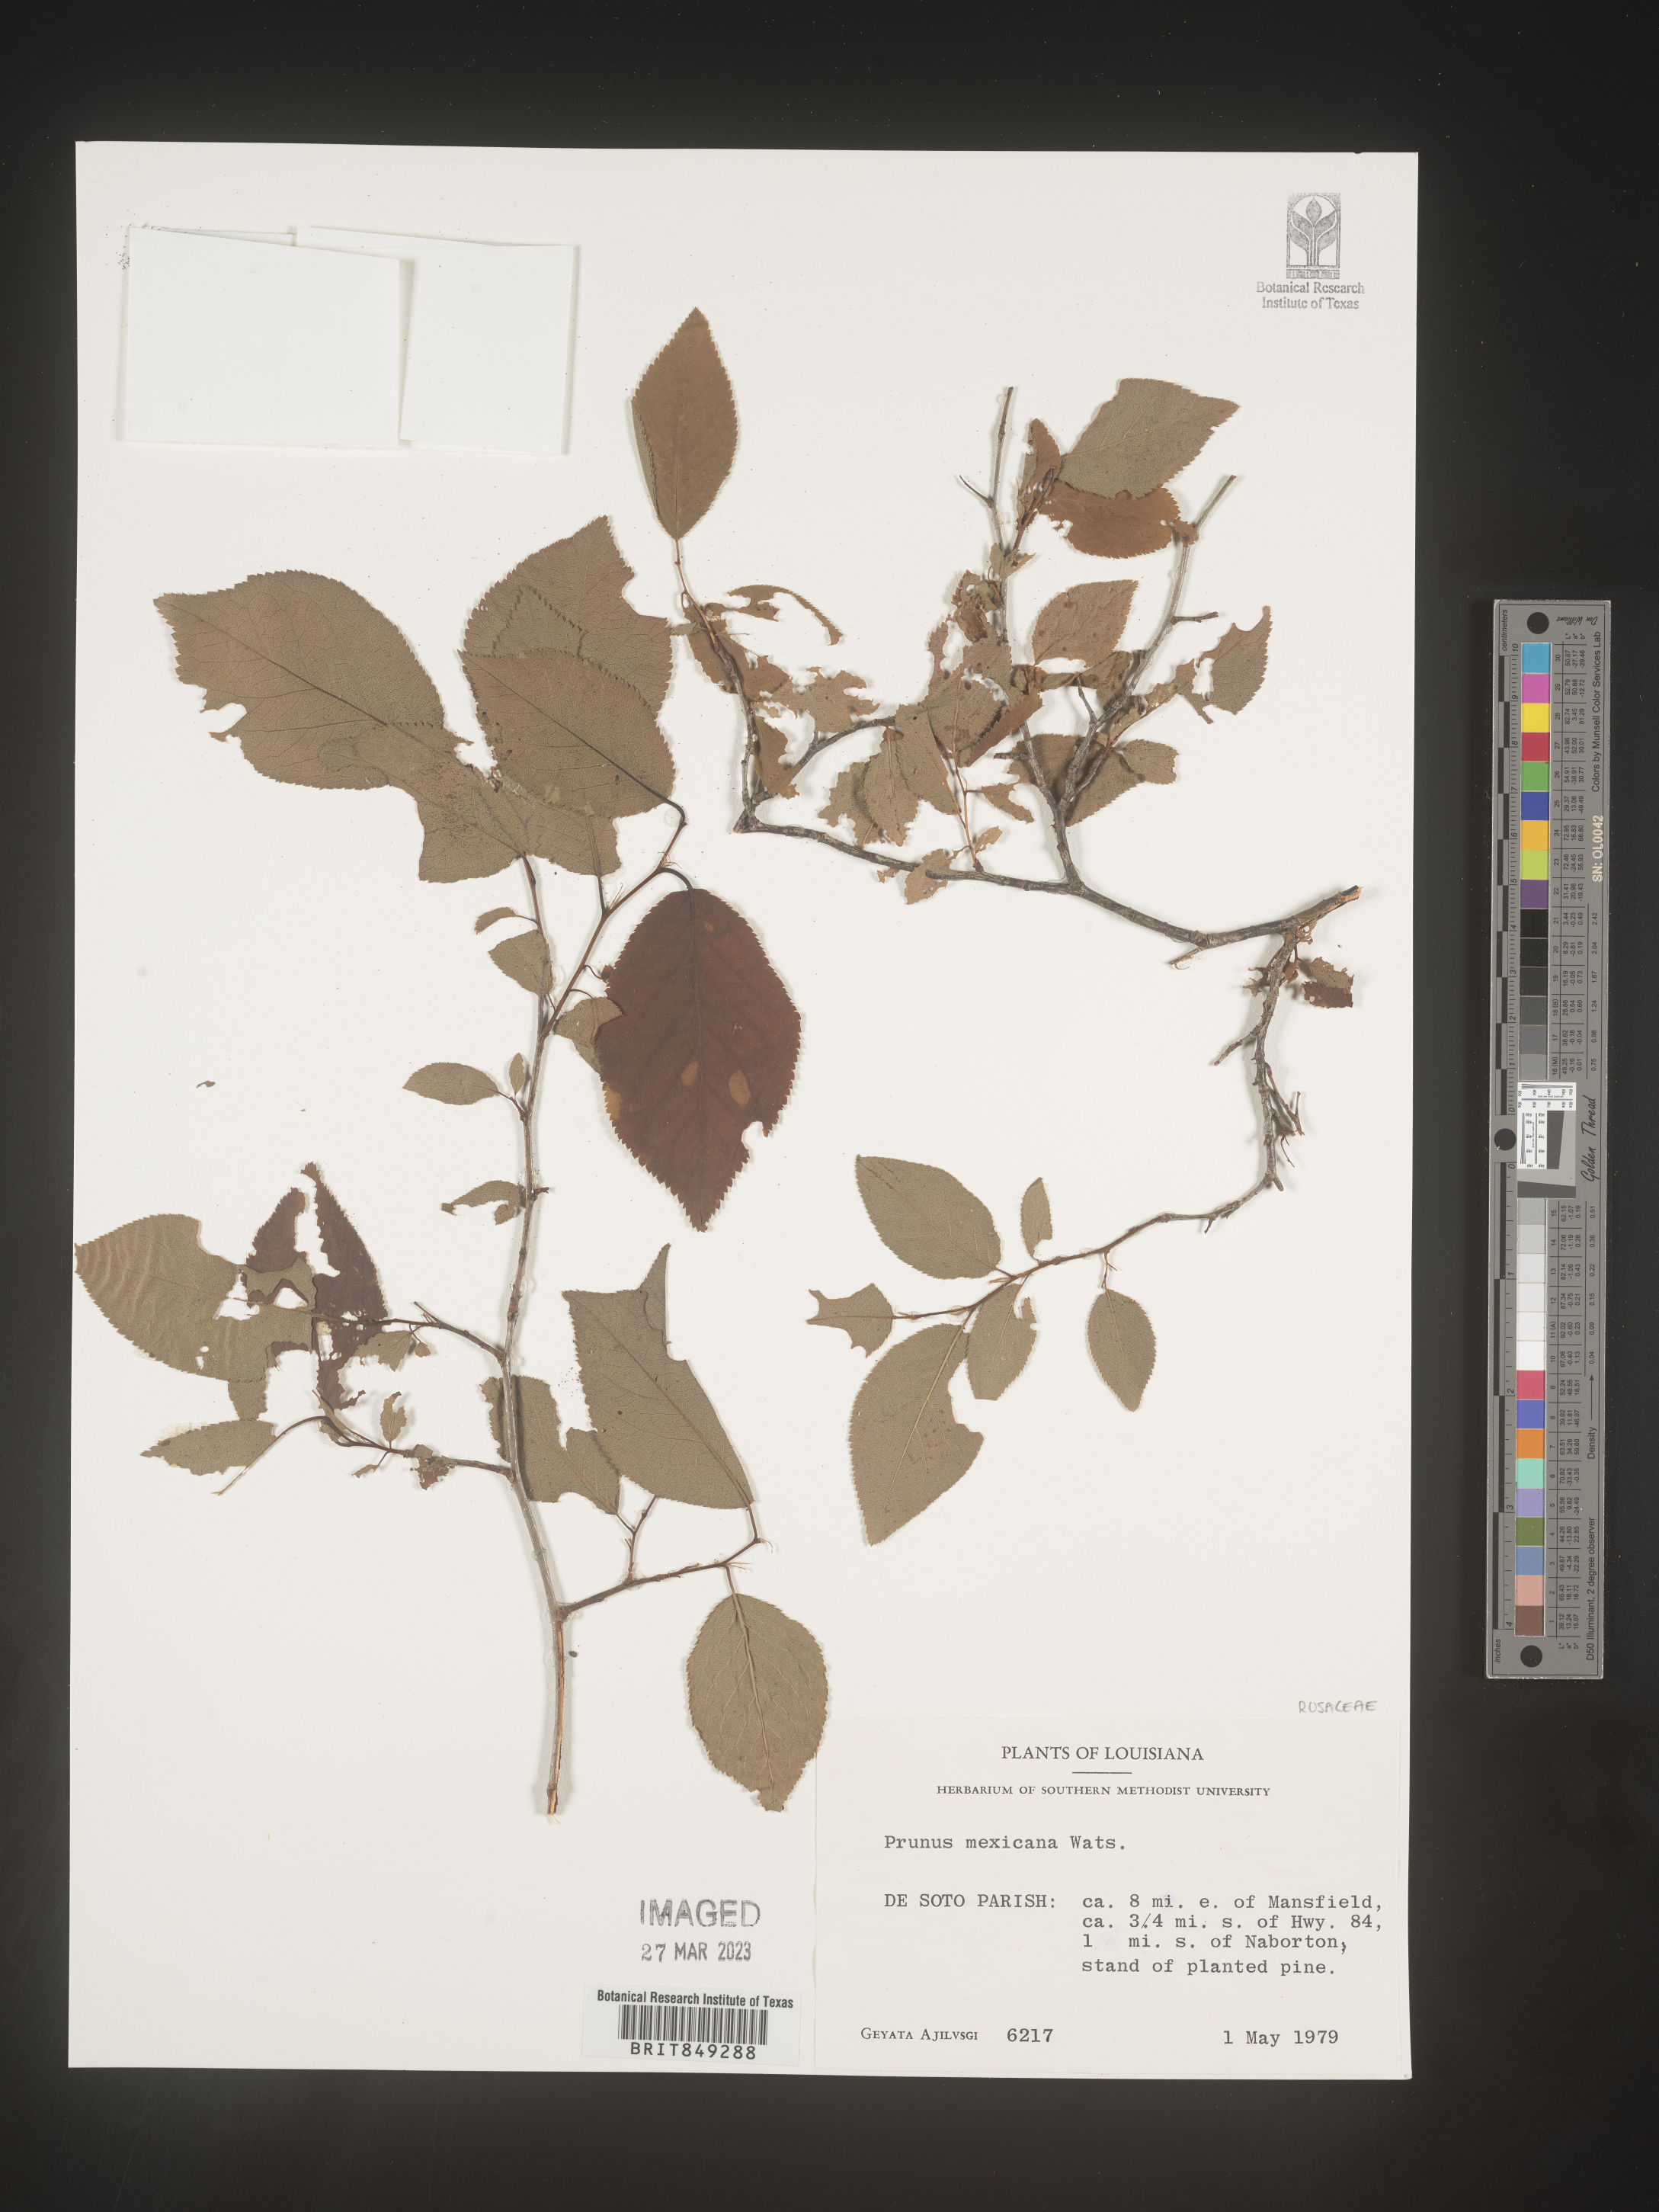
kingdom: Plantae
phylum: Tracheophyta
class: Magnoliopsida
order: Rosales
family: Rosaceae
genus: Prunus
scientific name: Prunus mexicana
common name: Mexican plum
